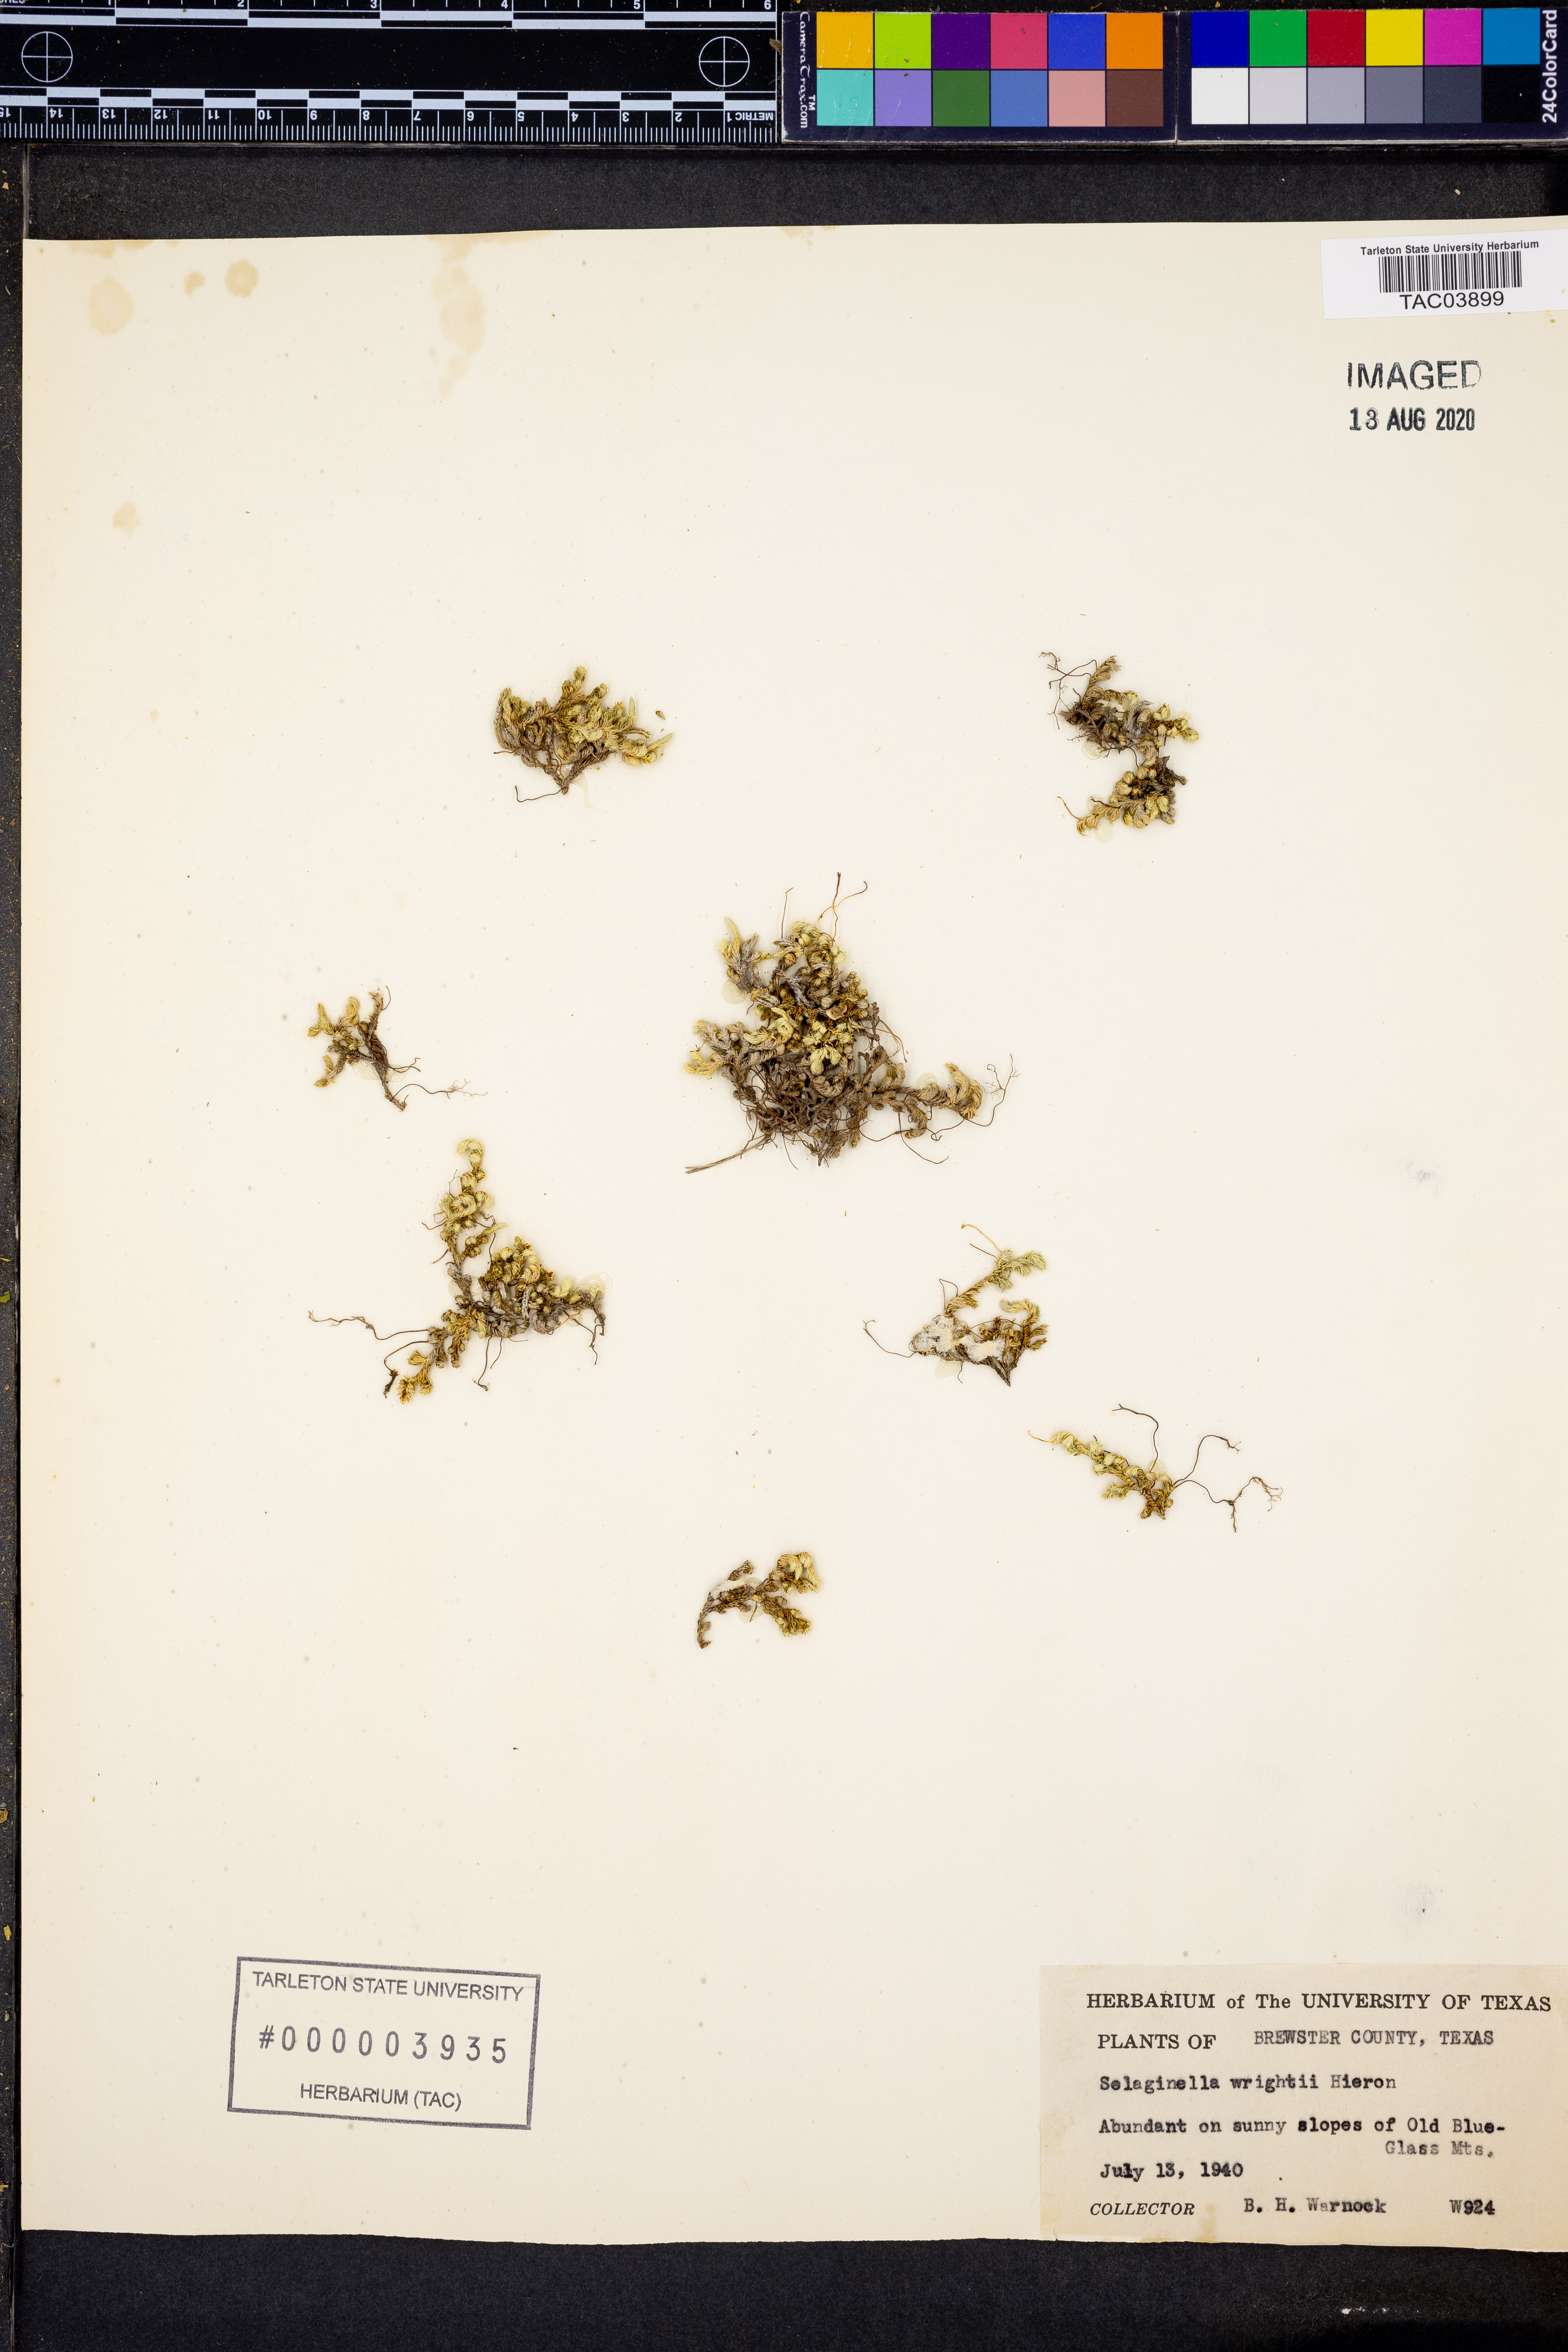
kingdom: Plantae
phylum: Tracheophyta
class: Lycopodiopsida
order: Selaginellales
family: Selaginellaceae
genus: Selaginella
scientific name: Selaginella wrightii
